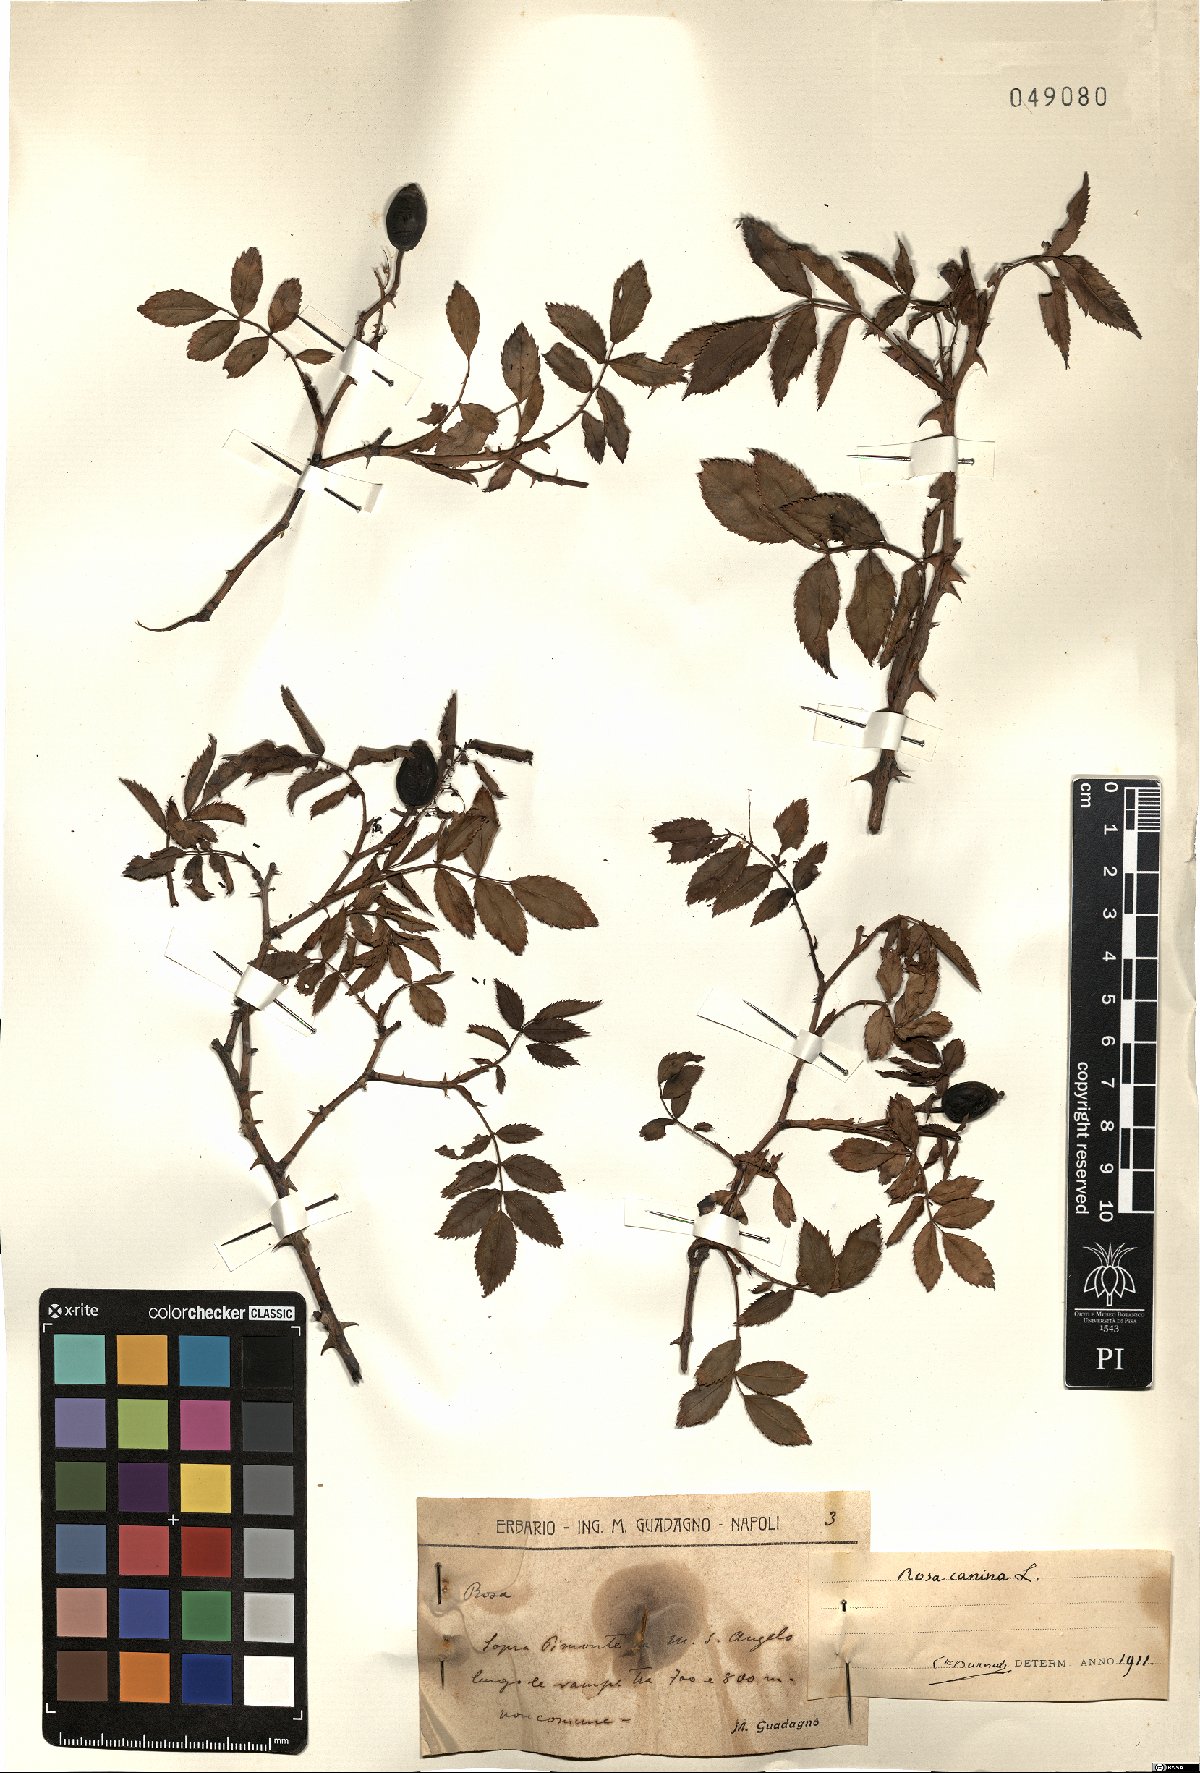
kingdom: Plantae
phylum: Tracheophyta
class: Magnoliopsida
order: Rosales
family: Rosaceae
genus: Rosa
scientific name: Rosa canina
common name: Dog rose
